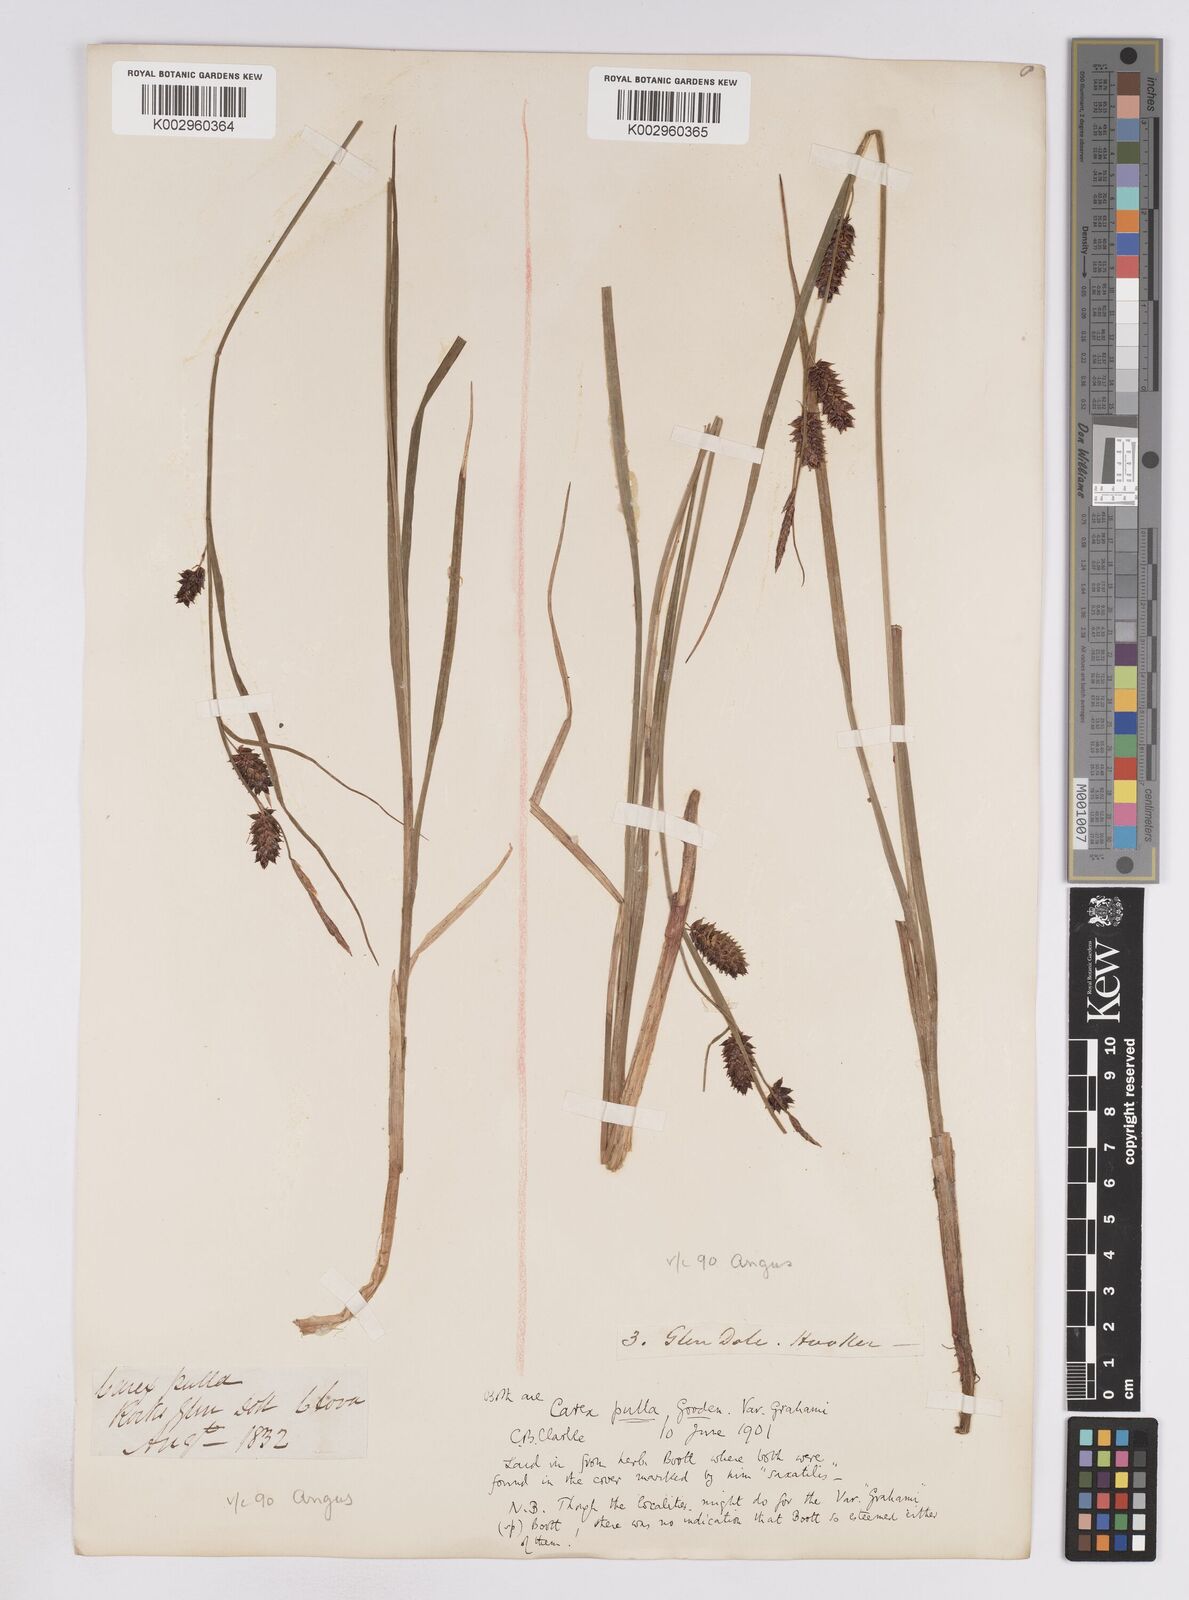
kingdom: Plantae
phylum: Tracheophyta
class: Liliopsida
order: Poales
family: Cyperaceae
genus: Carex
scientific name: Carex vesicaria
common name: Bladder-sedge
